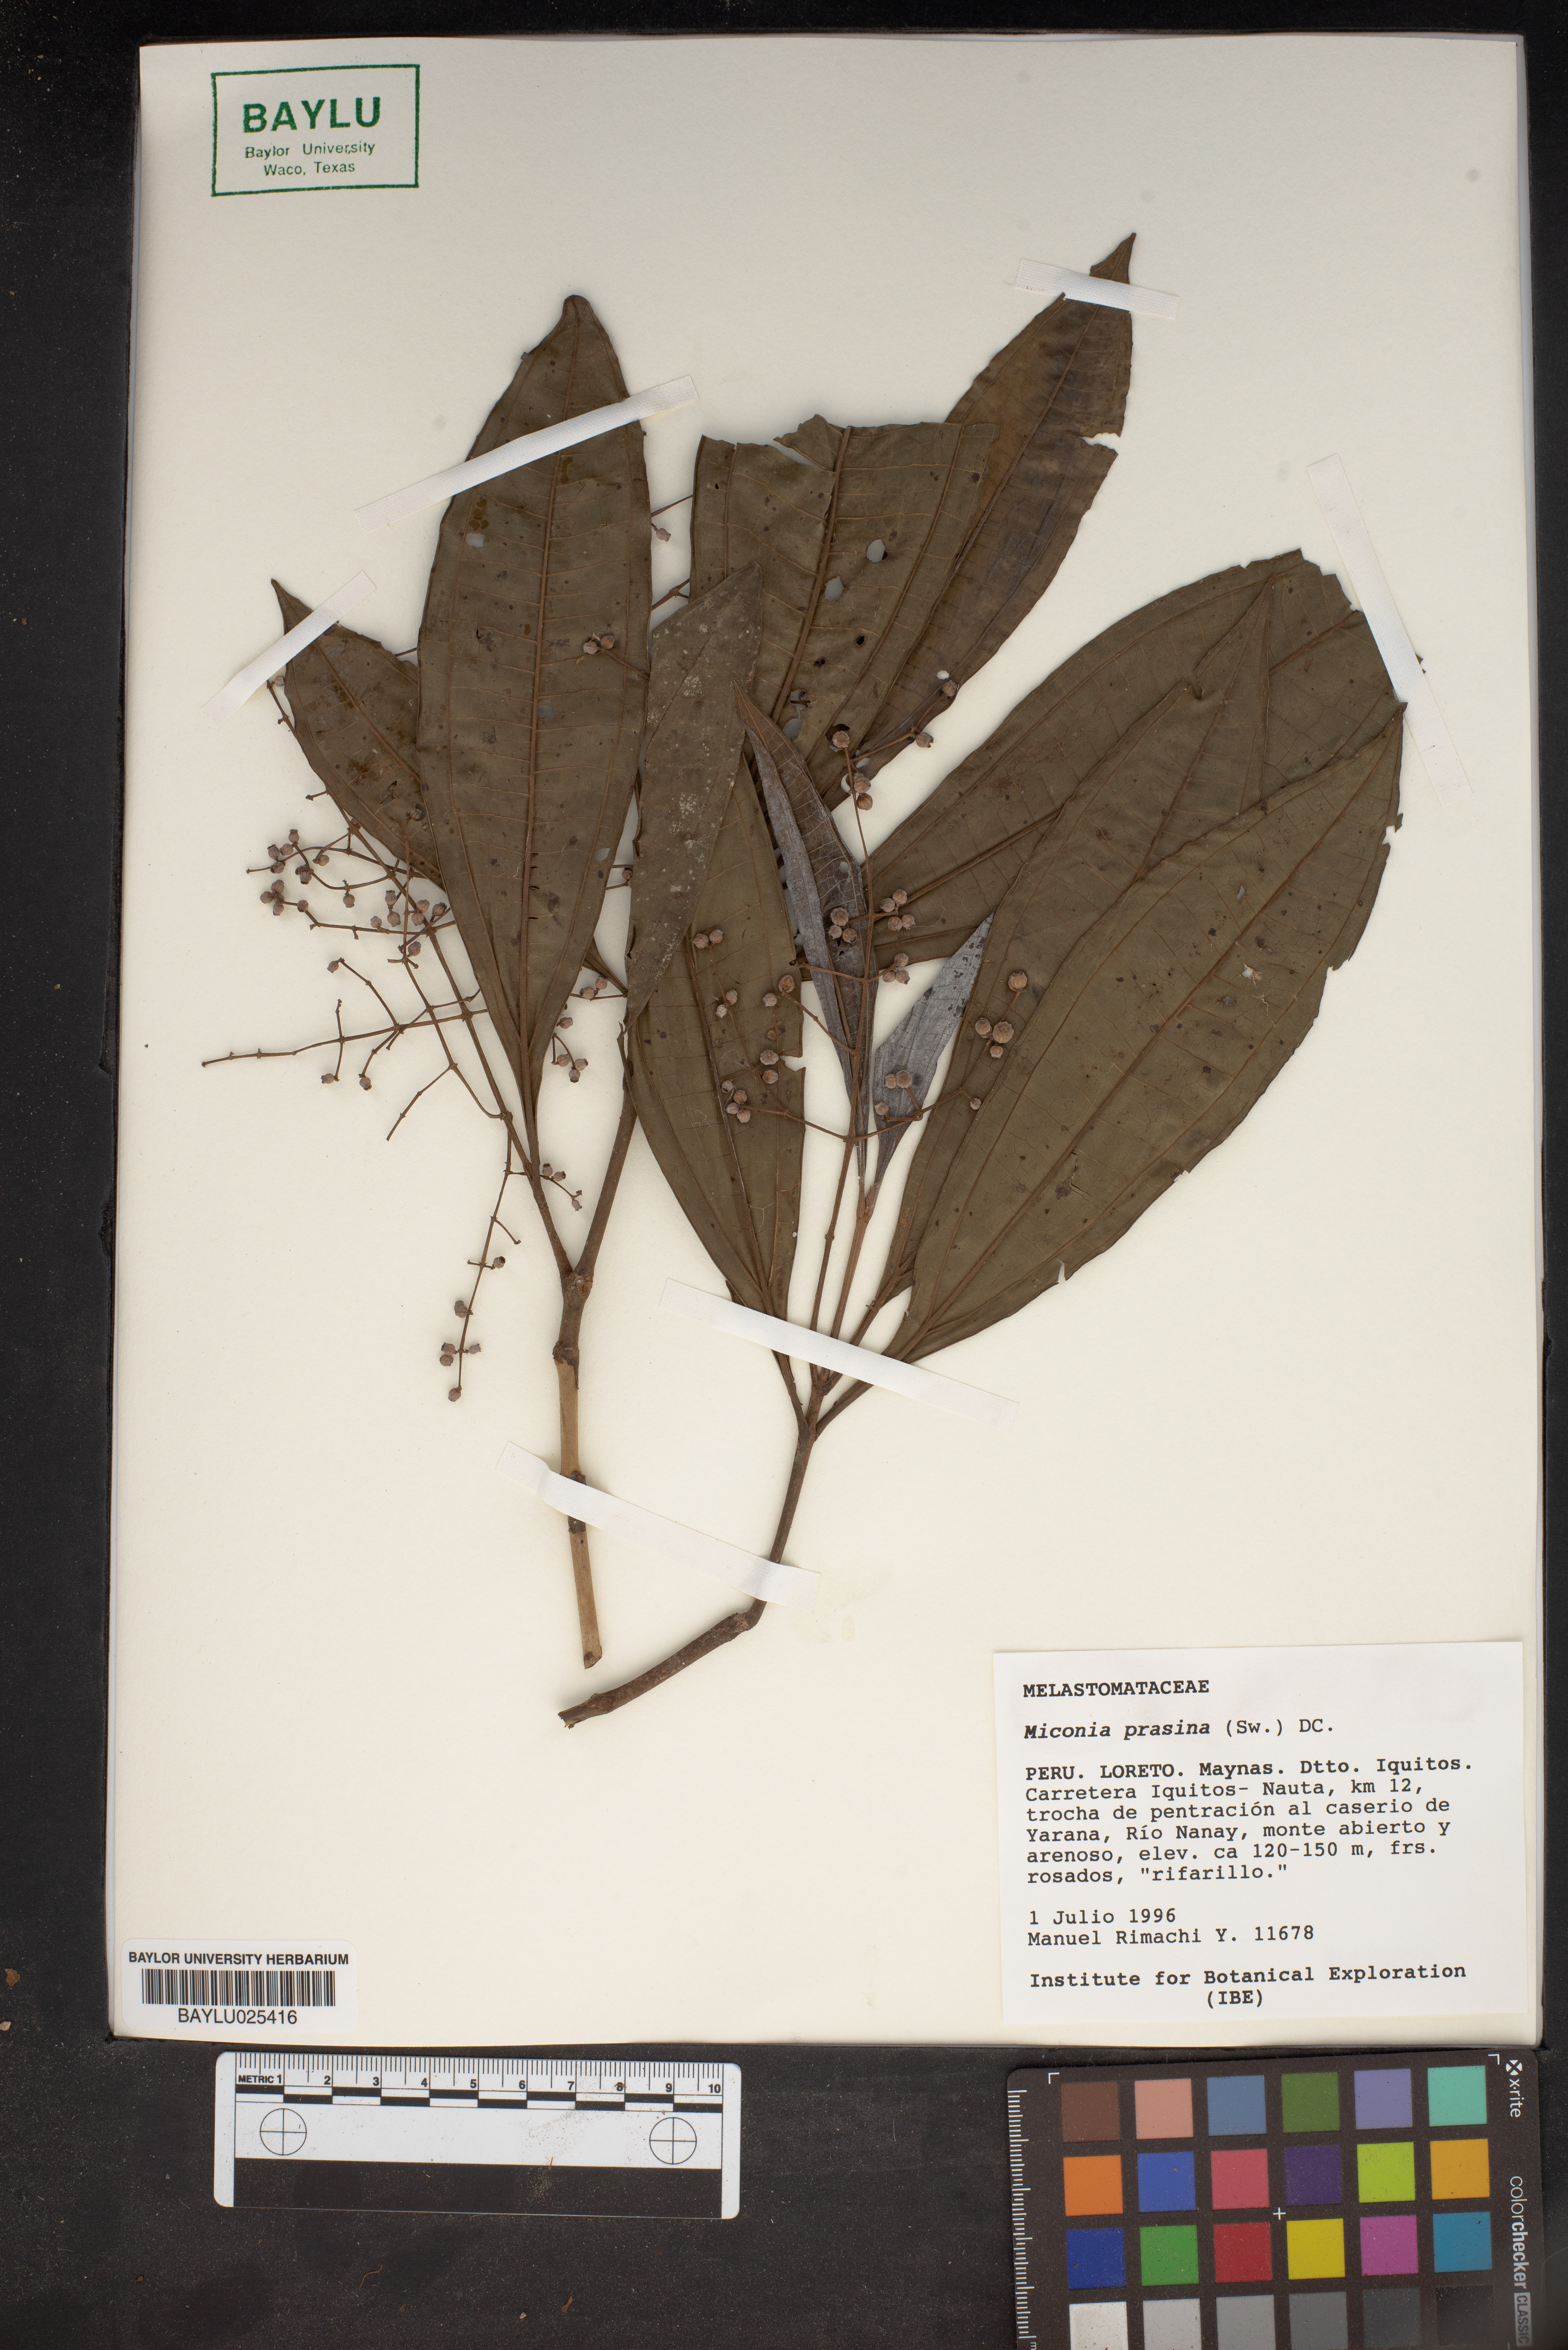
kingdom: Plantae
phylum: Tracheophyta
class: Magnoliopsida
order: Myrtales
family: Melastomataceae
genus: Miconia
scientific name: Miconia prasina
